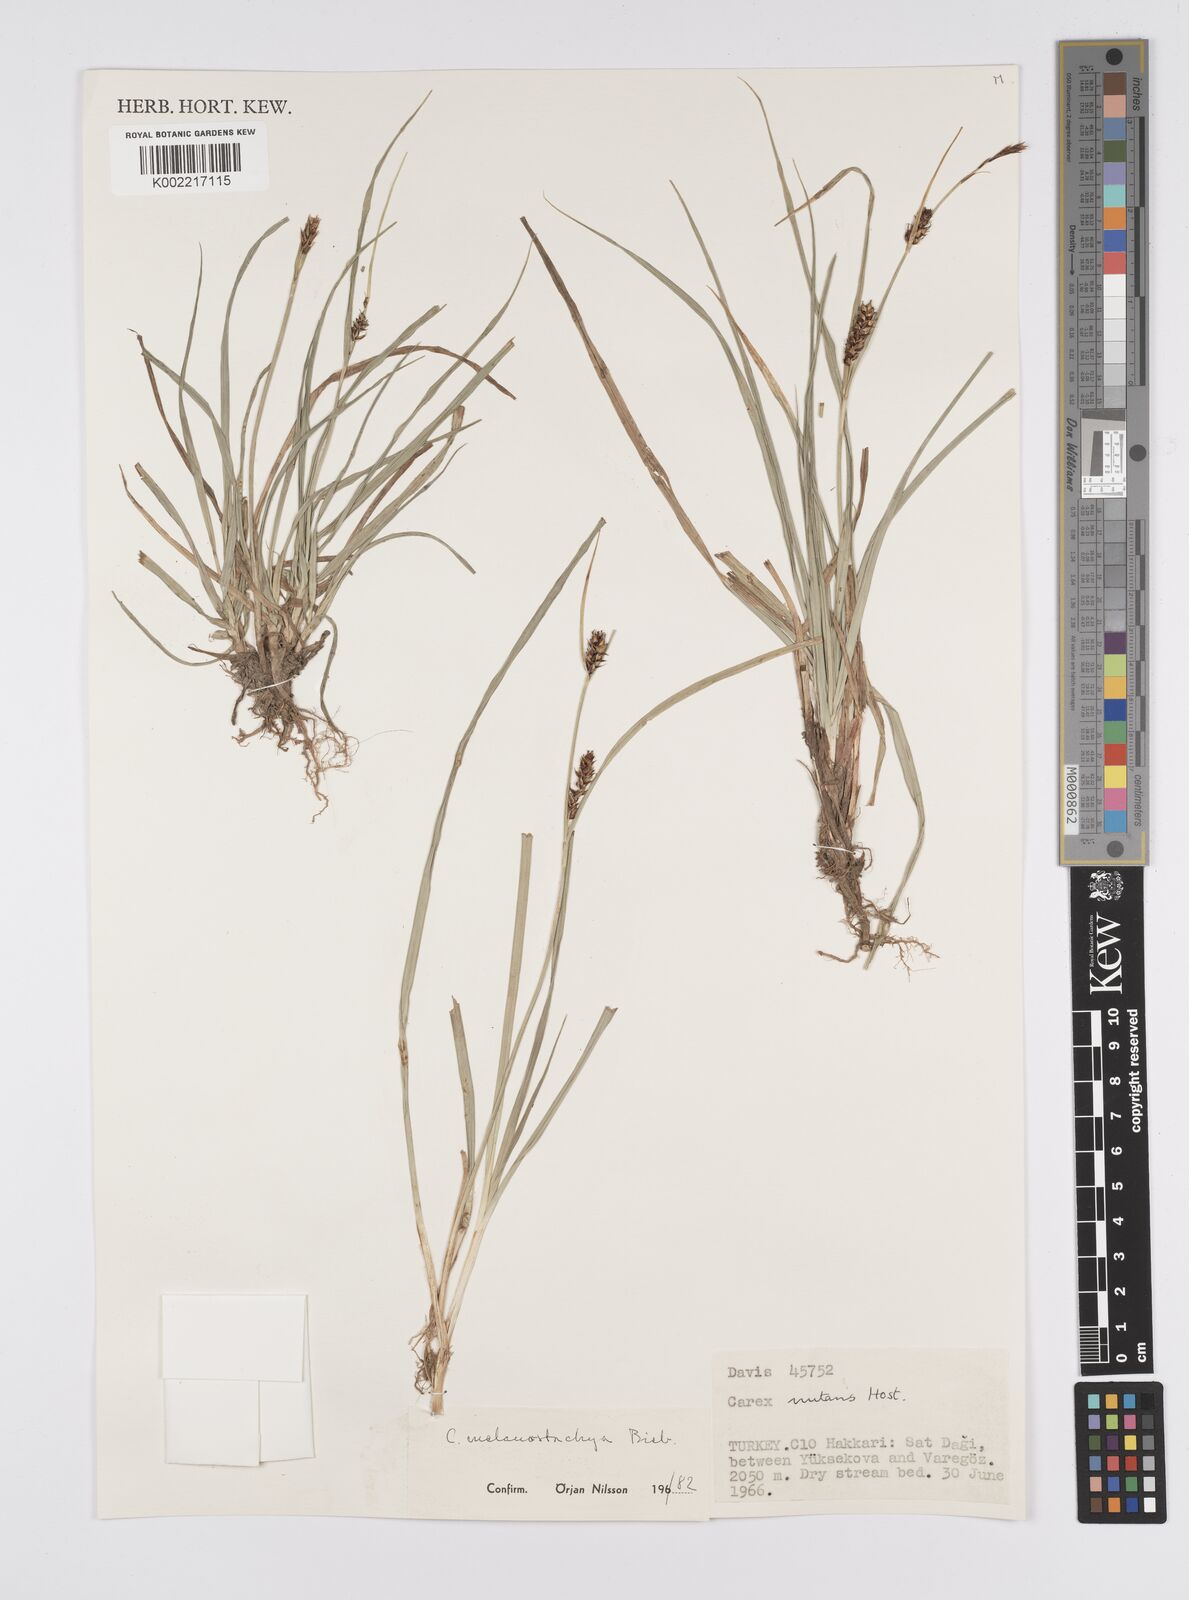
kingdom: Plantae
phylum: Tracheophyta
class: Liliopsida
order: Poales
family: Cyperaceae
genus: Carex
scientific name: Carex melanostachya
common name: Black-spiked sedge
